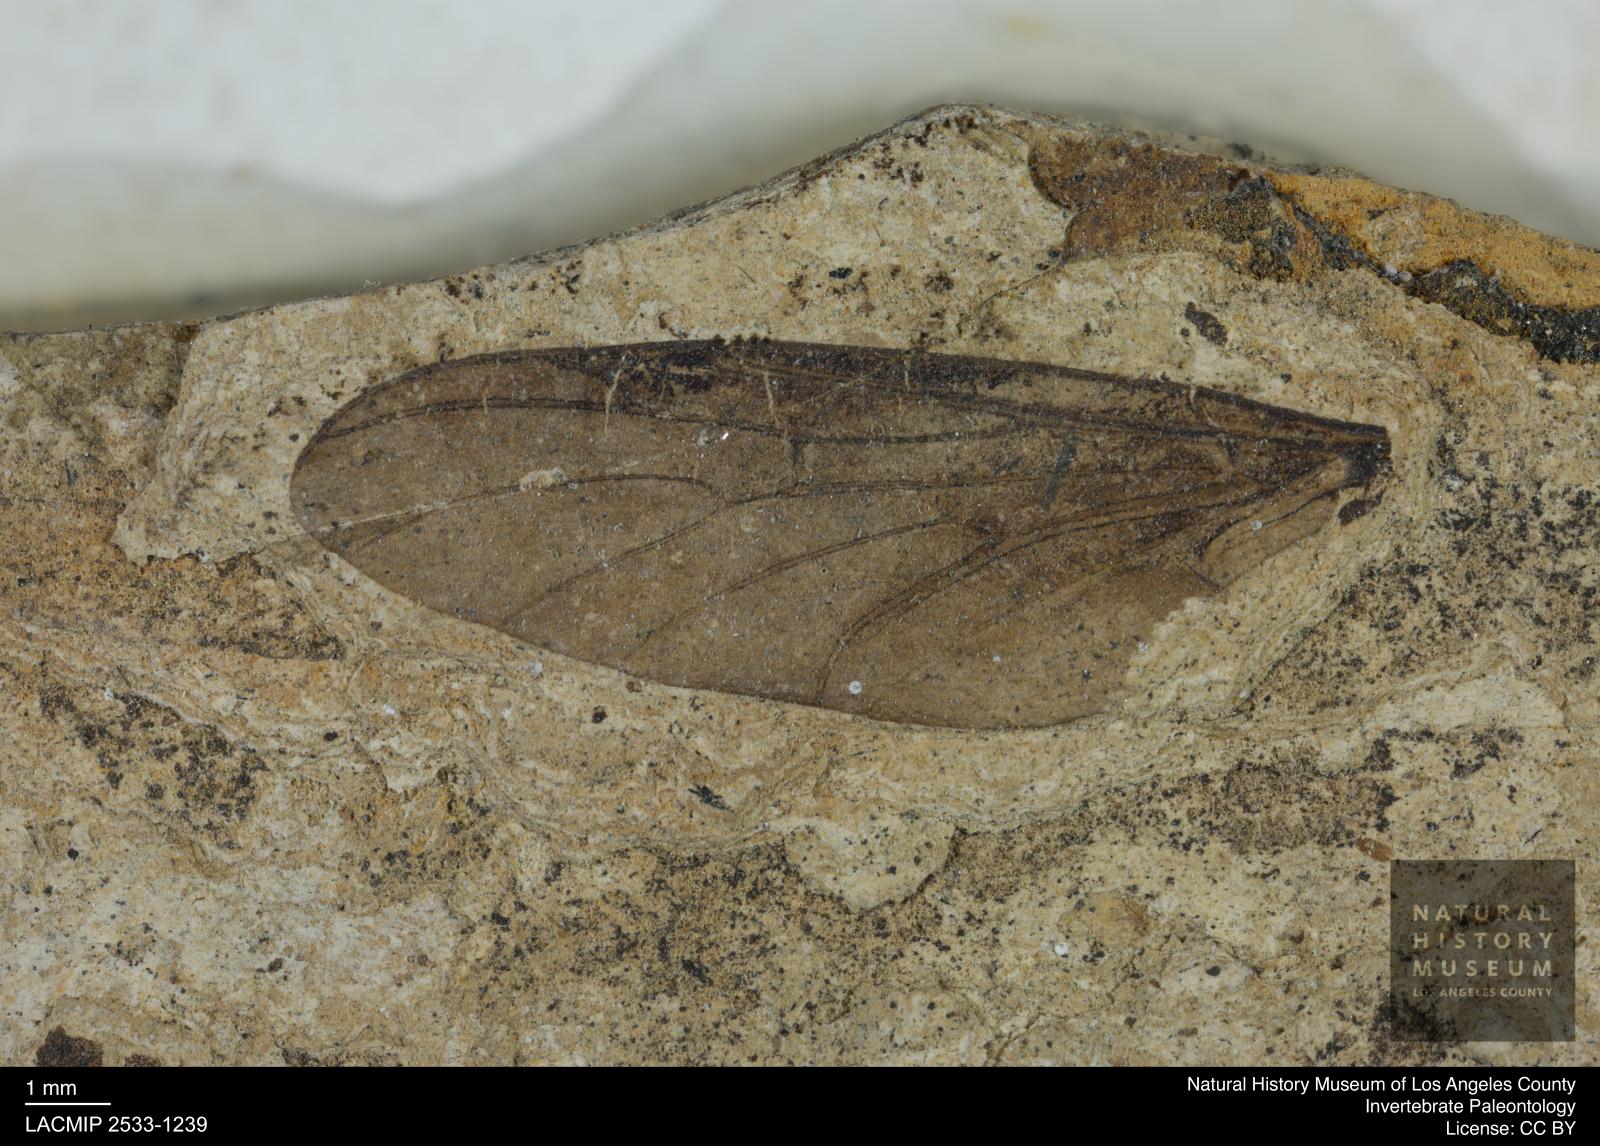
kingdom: Animalia
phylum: Arthropoda
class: Insecta
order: Diptera
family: Bibionidae
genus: Plecia
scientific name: Plecia
